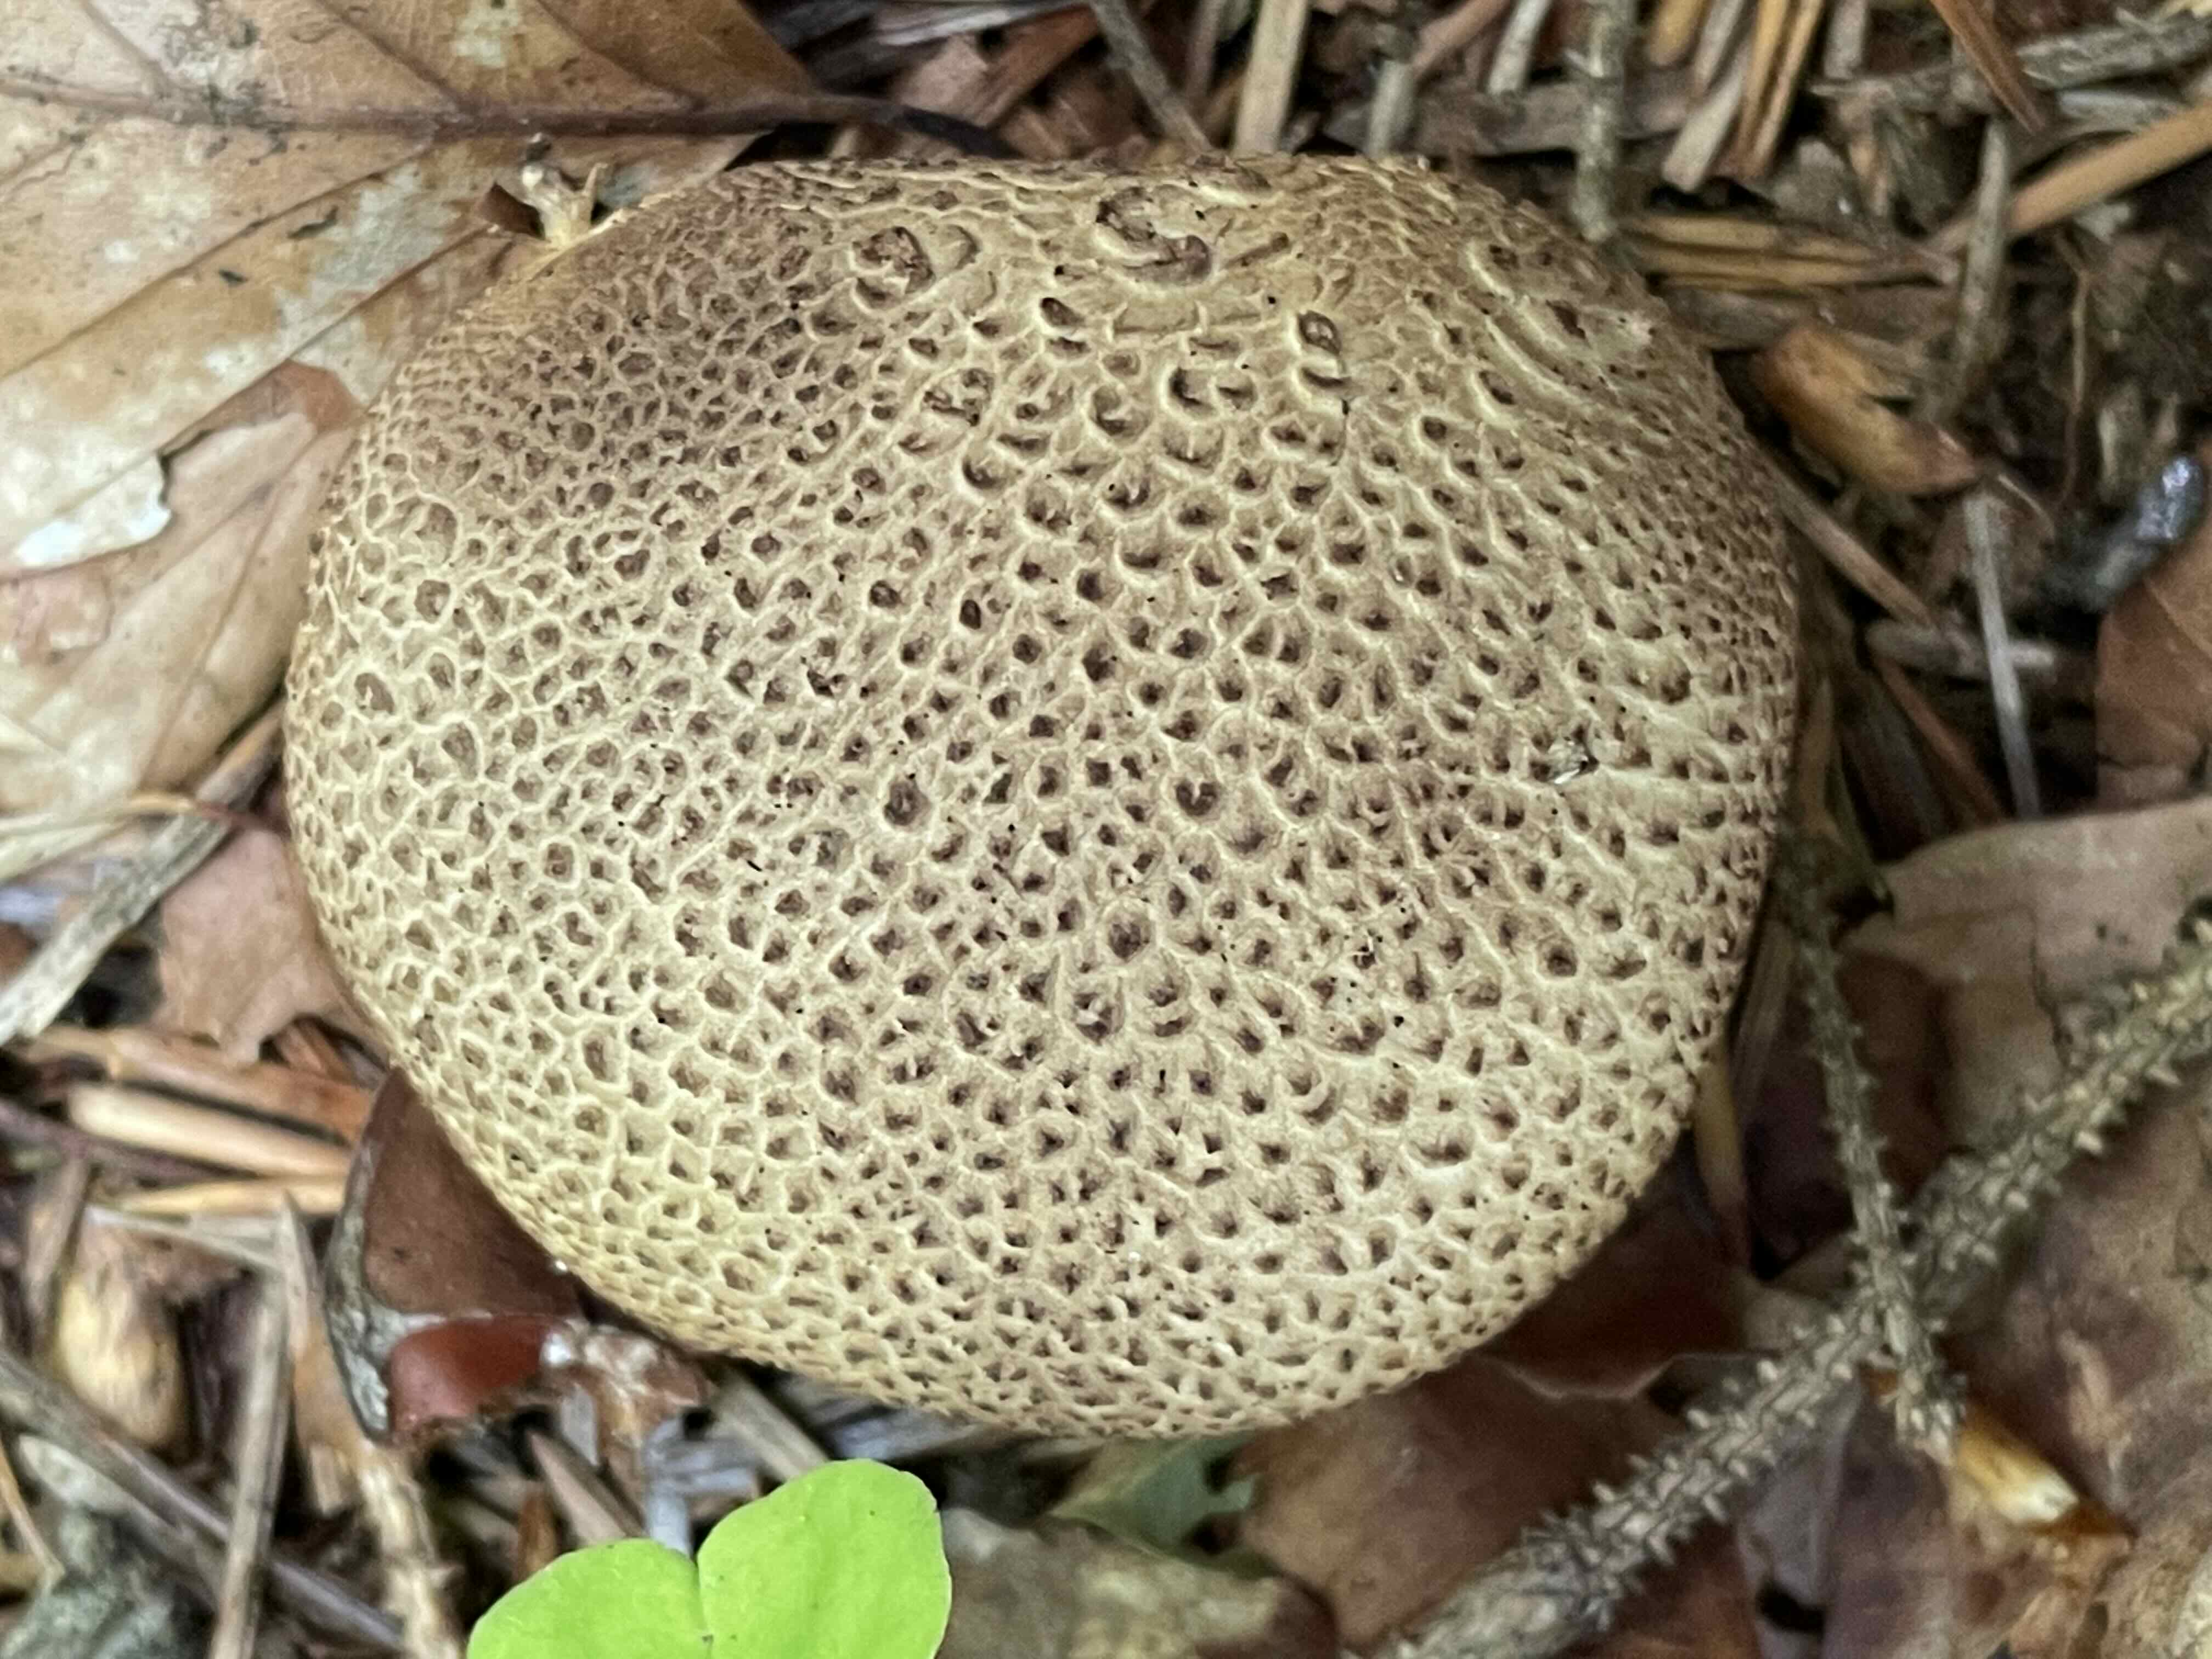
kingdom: Fungi
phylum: Basidiomycota
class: Agaricomycetes
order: Boletales
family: Sclerodermataceae
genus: Scleroderma
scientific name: Scleroderma citrinum
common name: almindelig bruskbold
